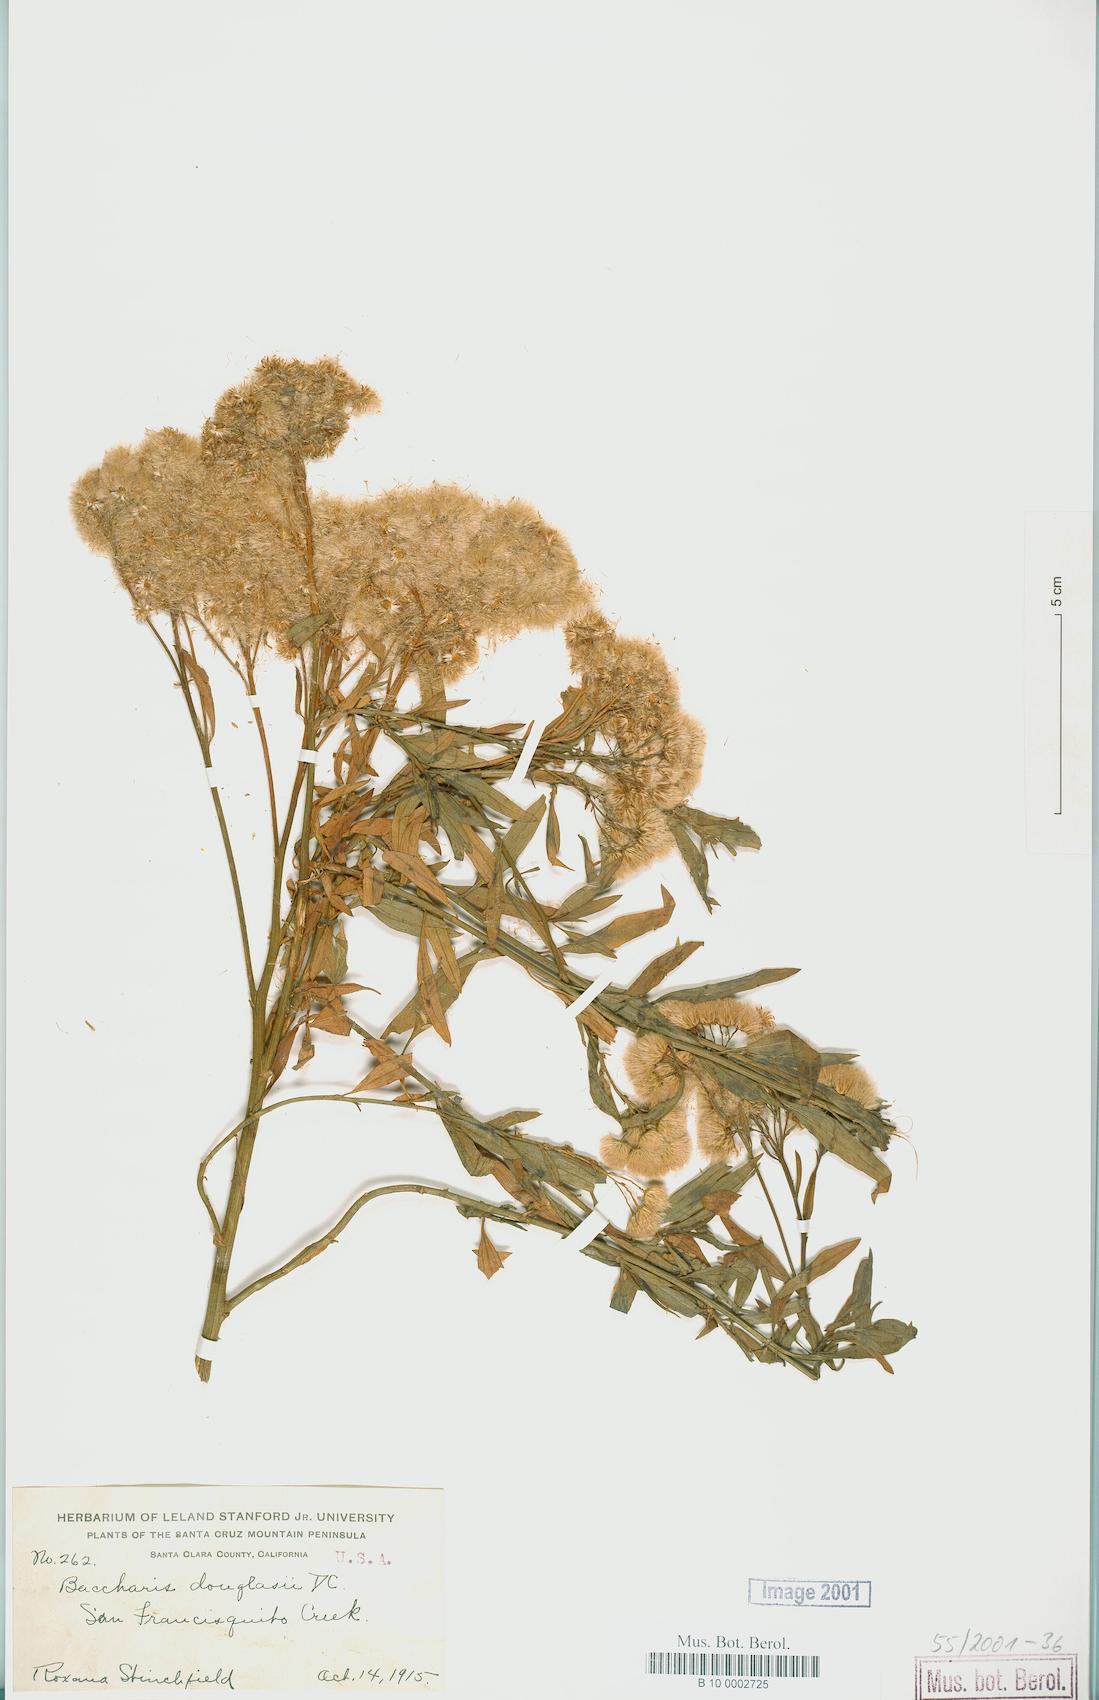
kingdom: Plantae
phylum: Tracheophyta
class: Magnoliopsida
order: Asterales
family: Asteraceae
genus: Baccharis
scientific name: Baccharis douglasii
